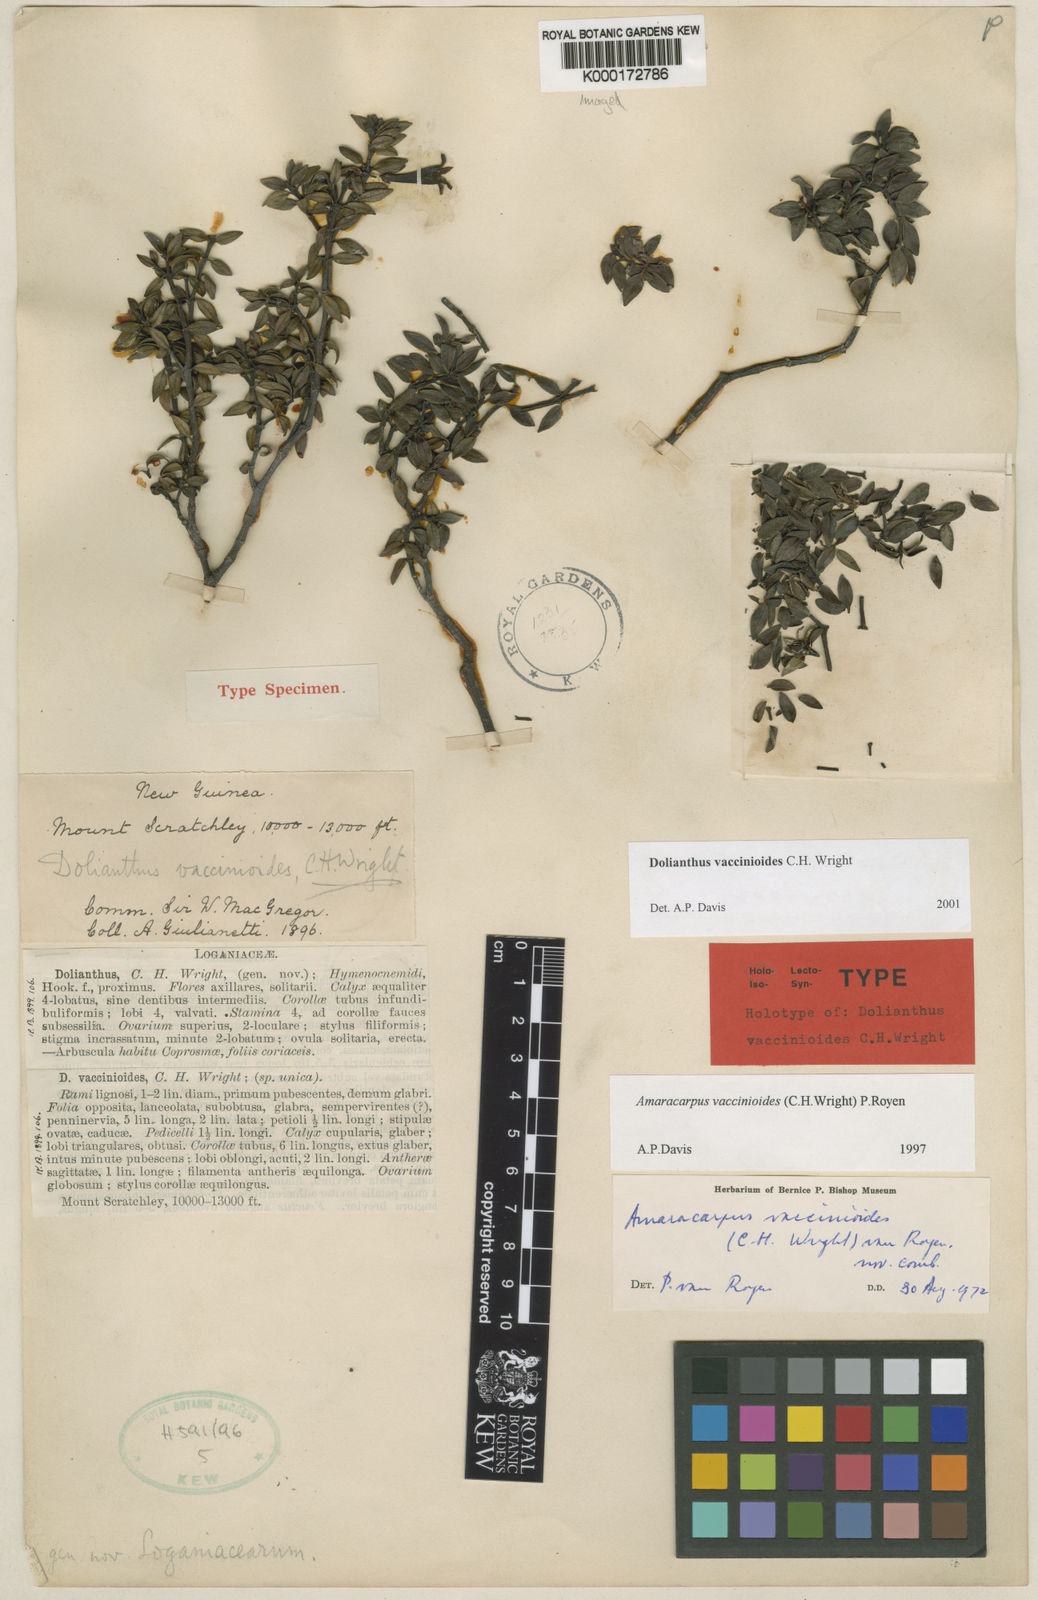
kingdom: Plantae
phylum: Tracheophyta
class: Magnoliopsida
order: Gentianales
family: Rubiaceae
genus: Dolianthus
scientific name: Dolianthus vaccinioides
